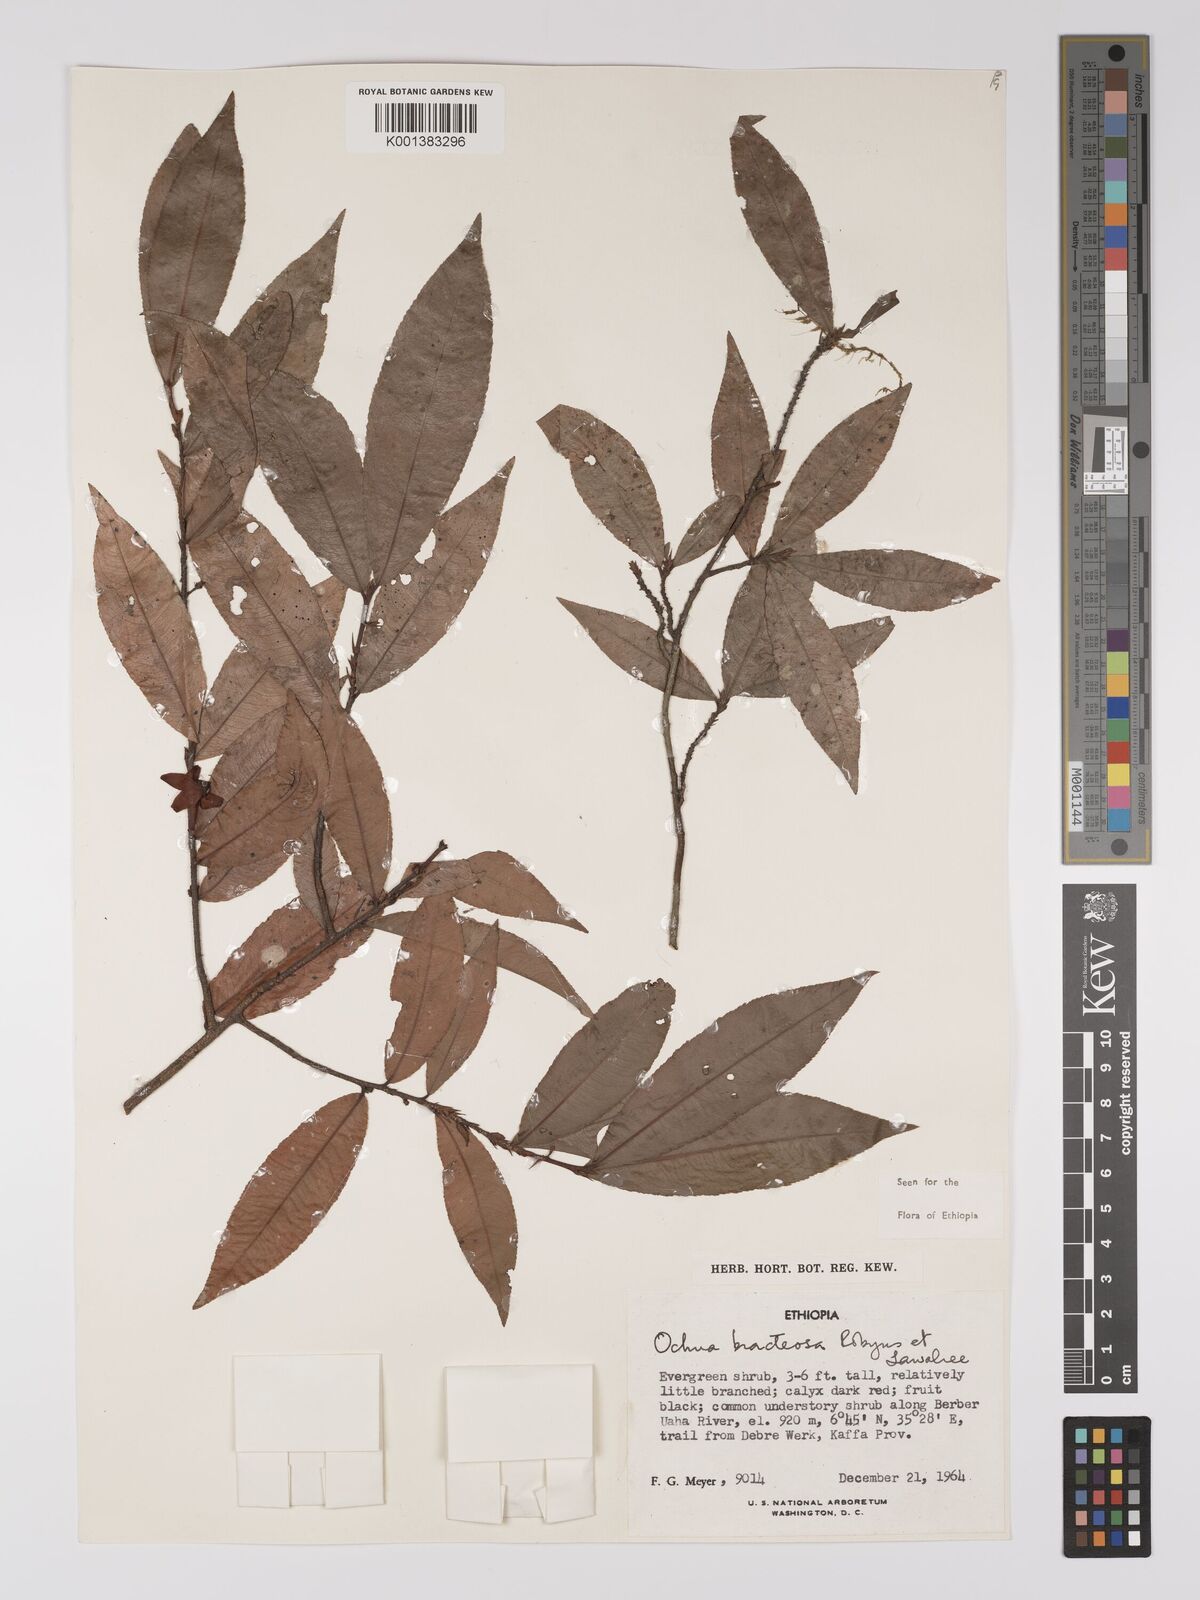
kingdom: Plantae
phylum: Tracheophyta
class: Magnoliopsida
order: Malpighiales
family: Ochnaceae
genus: Ochna
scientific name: Ochna bracteosa
